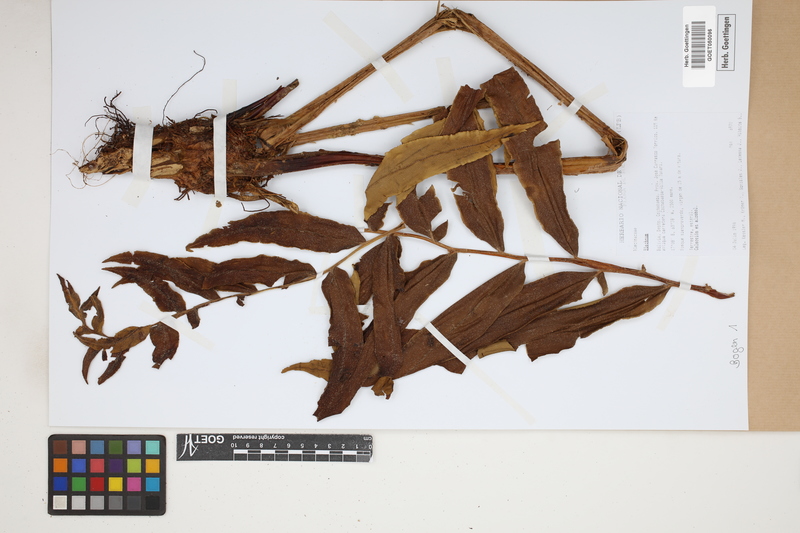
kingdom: Plantae
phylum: Tracheophyta
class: Polypodiopsida
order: Polypodiales
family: Blechnaceae
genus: Blechnum
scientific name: Blechnum
